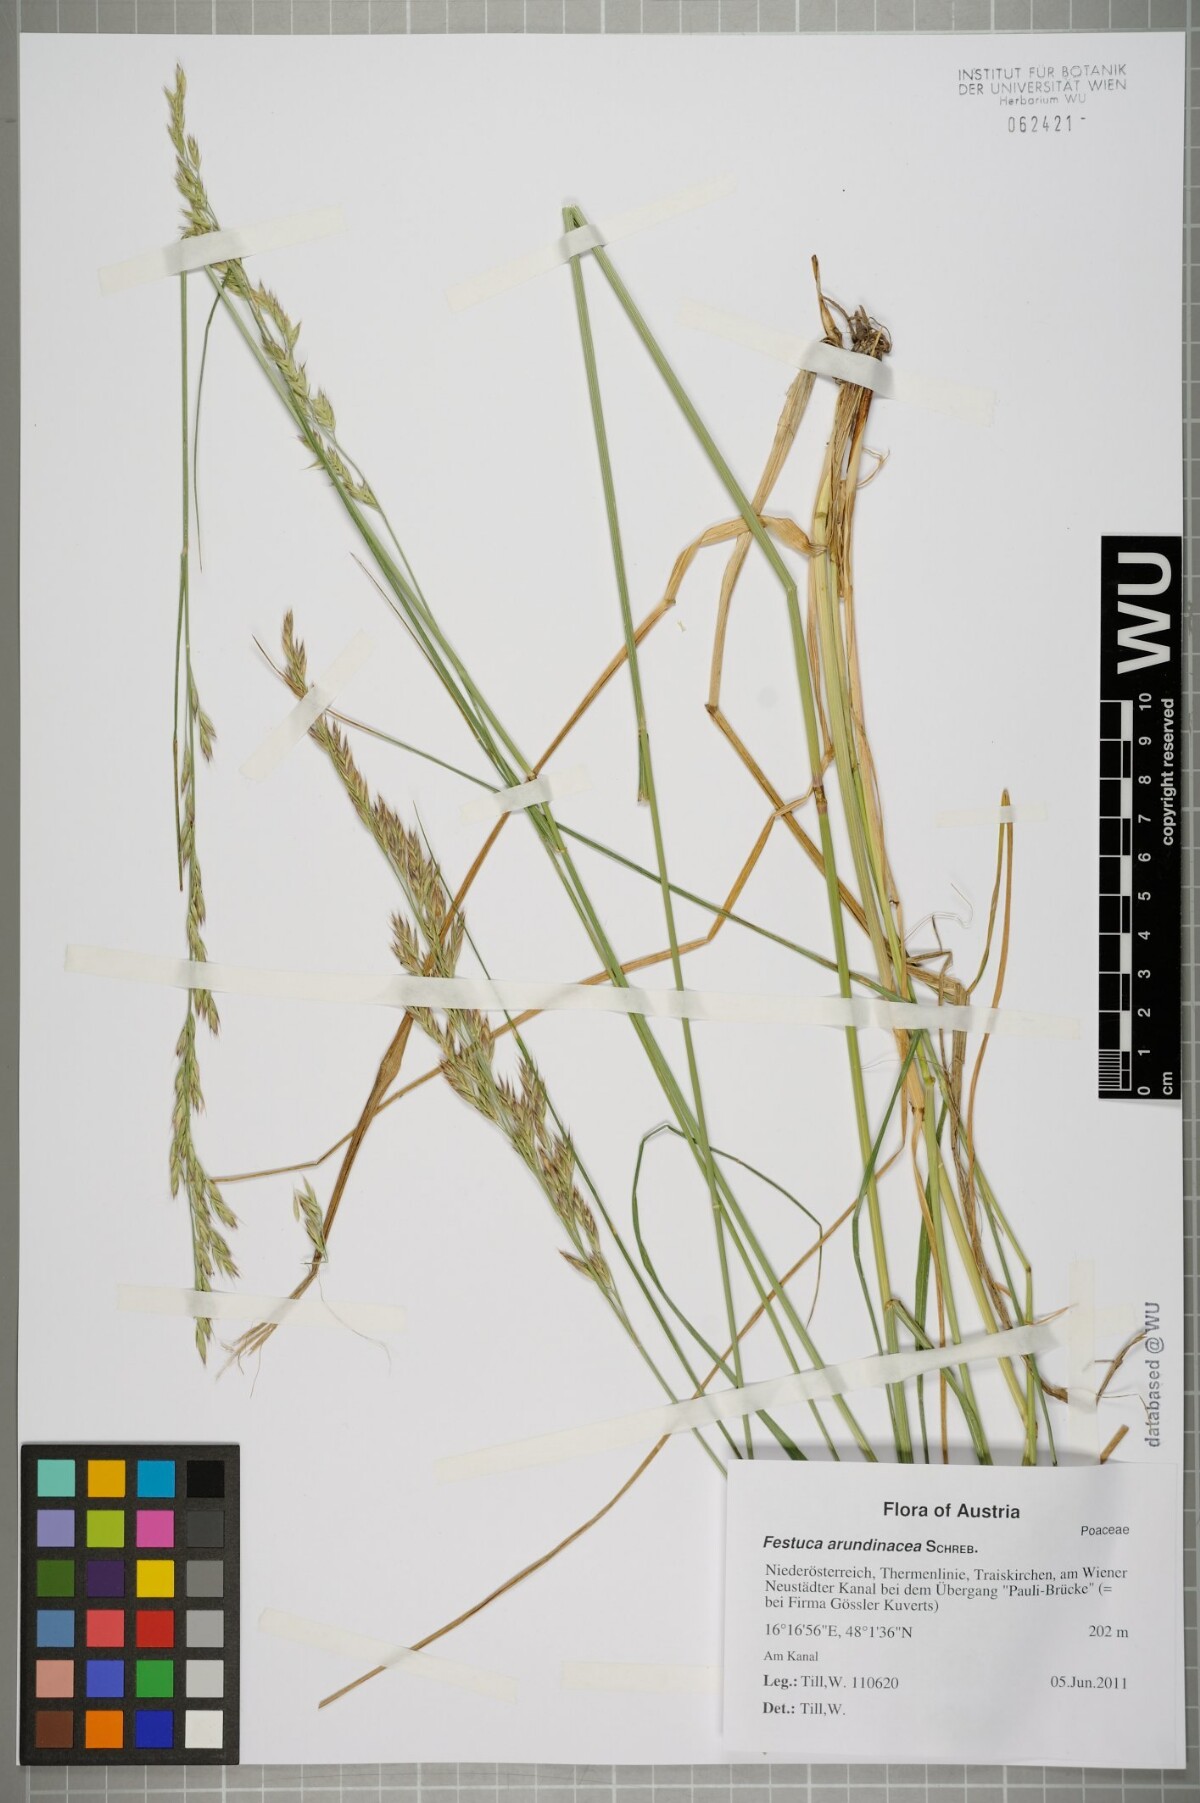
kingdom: Plantae
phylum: Tracheophyta
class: Liliopsida
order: Poales
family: Poaceae
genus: Lolium
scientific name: Lolium arundinaceum
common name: Reed fescue
